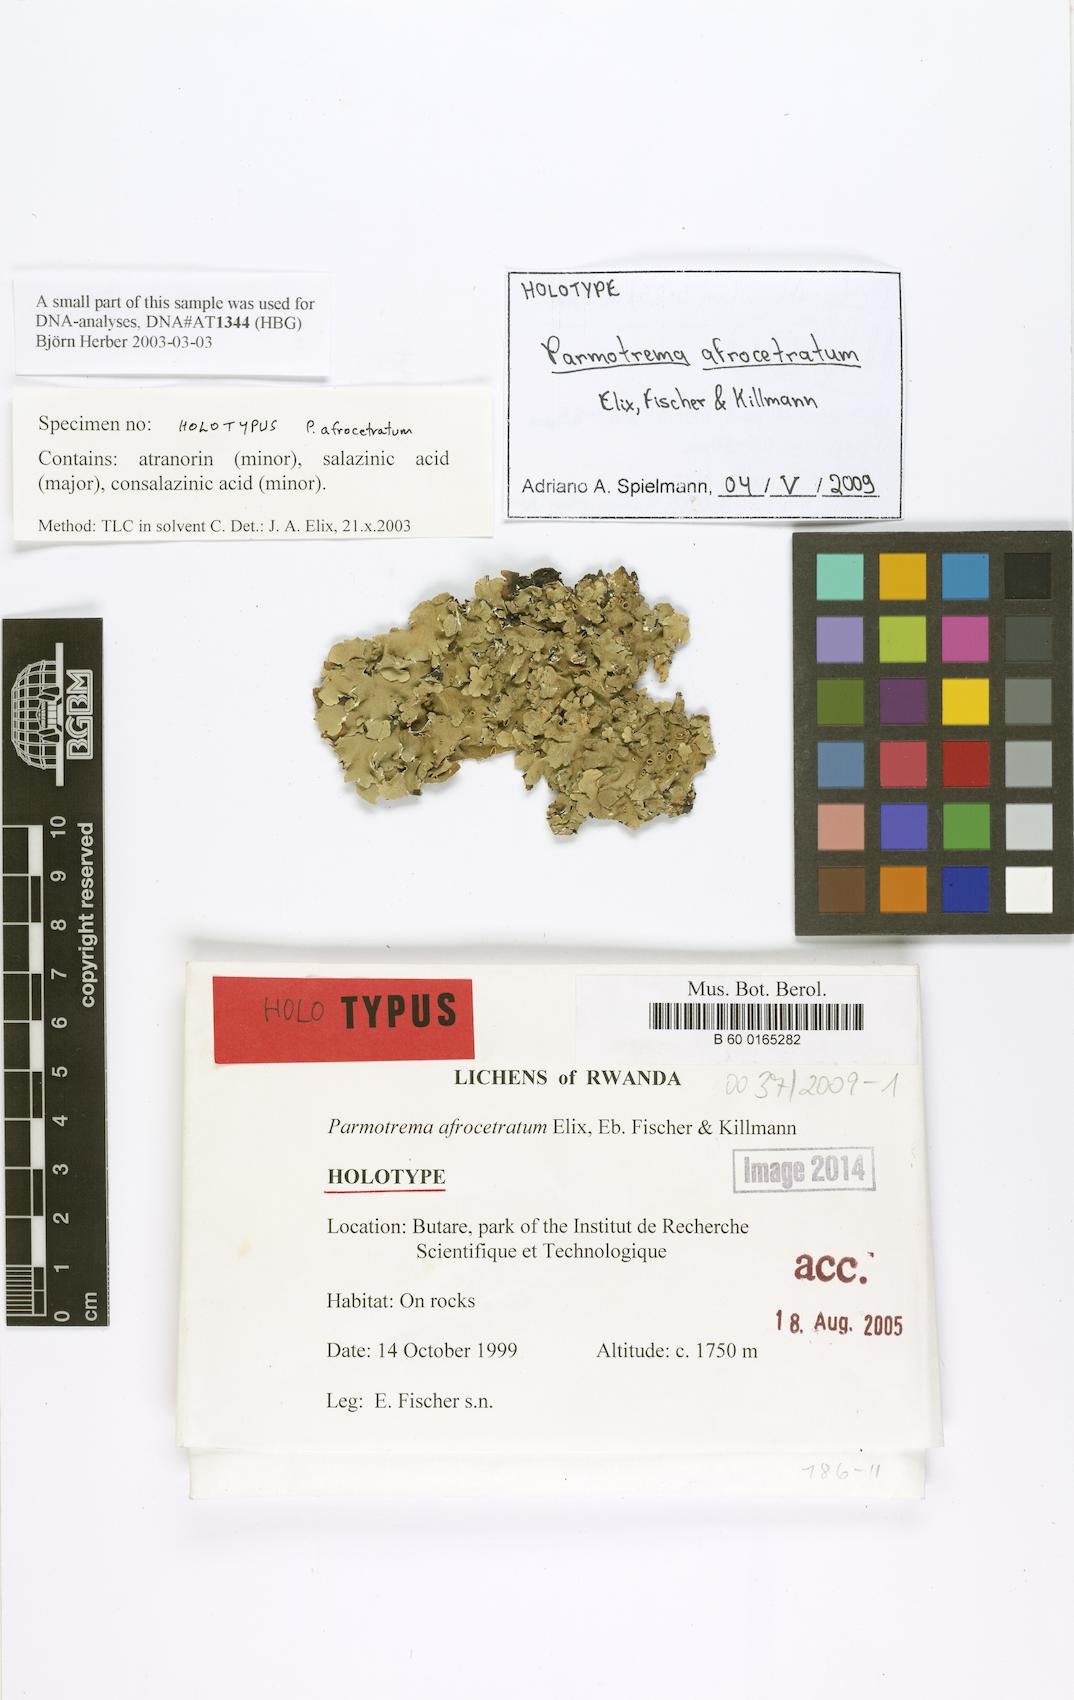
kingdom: Fungi
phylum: Ascomycota
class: Lecanoromycetes
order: Lecanorales
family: Parmeliaceae
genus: Parmelinella
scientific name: Parmelinella afrocetrata
